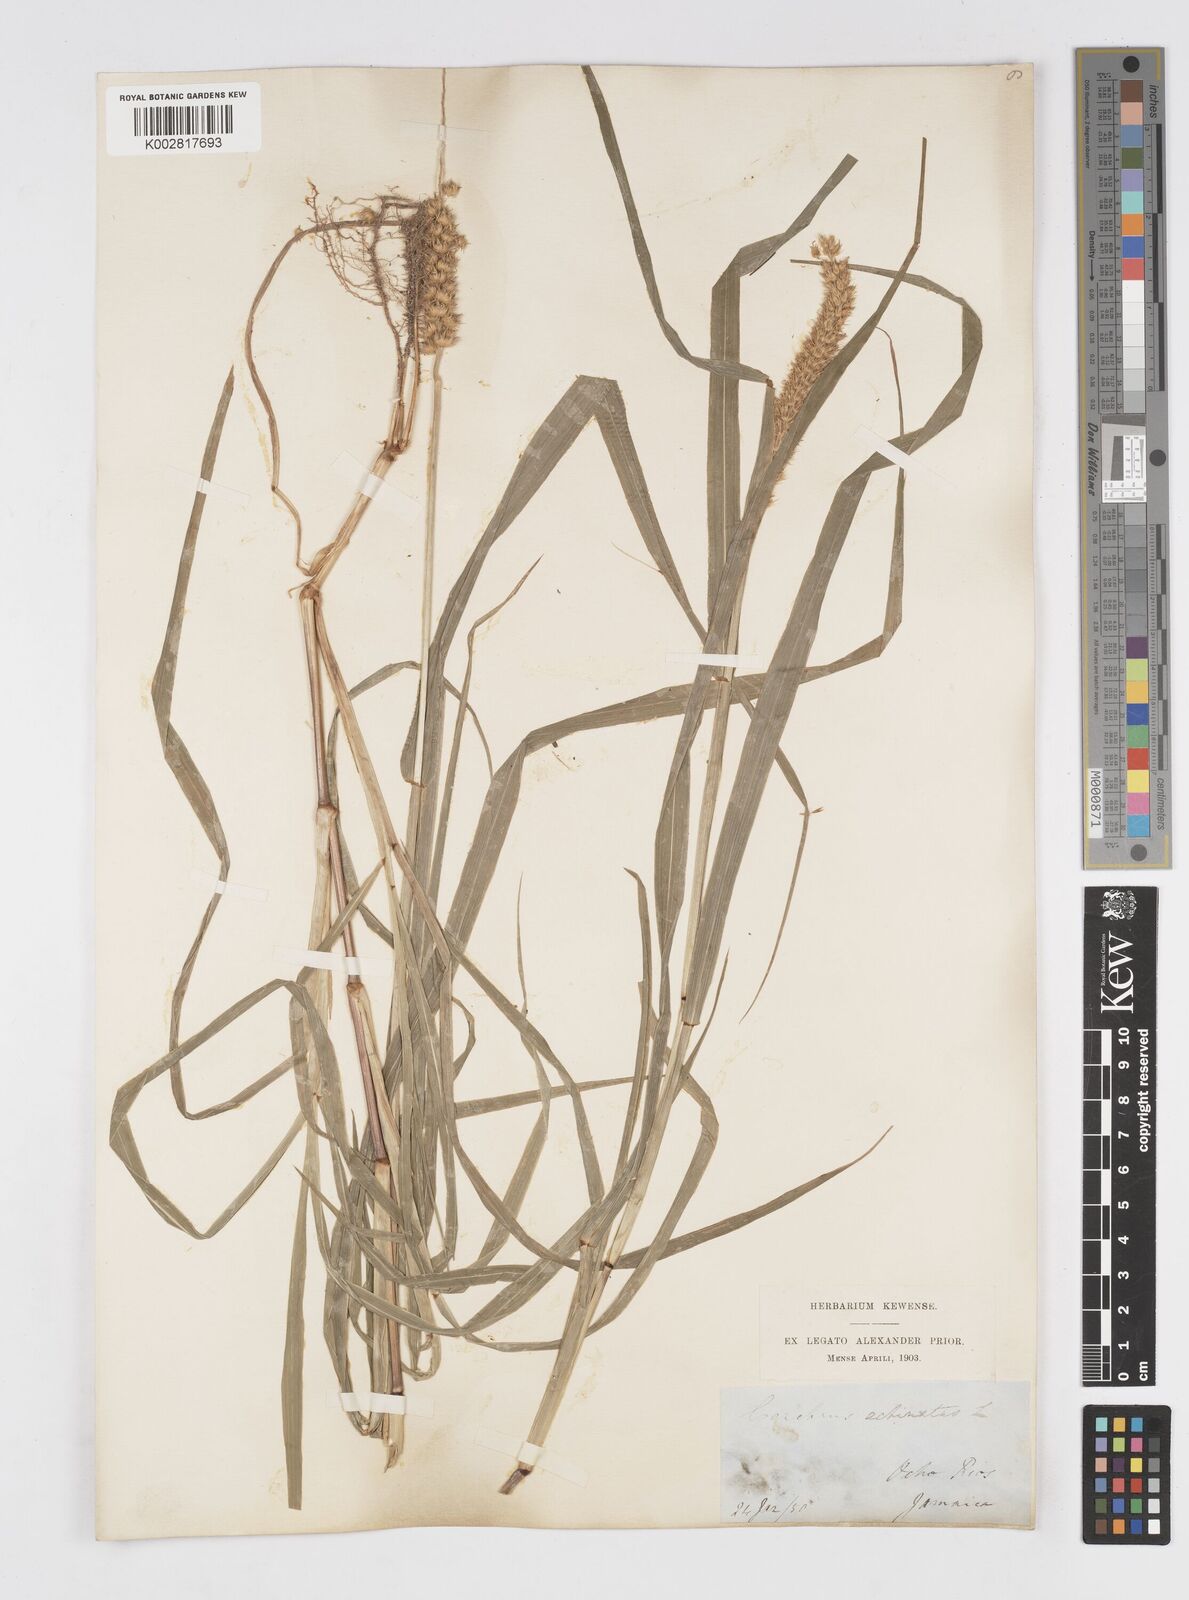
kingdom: Plantae
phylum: Tracheophyta
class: Liliopsida
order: Poales
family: Poaceae
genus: Cenchrus
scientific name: Cenchrus
